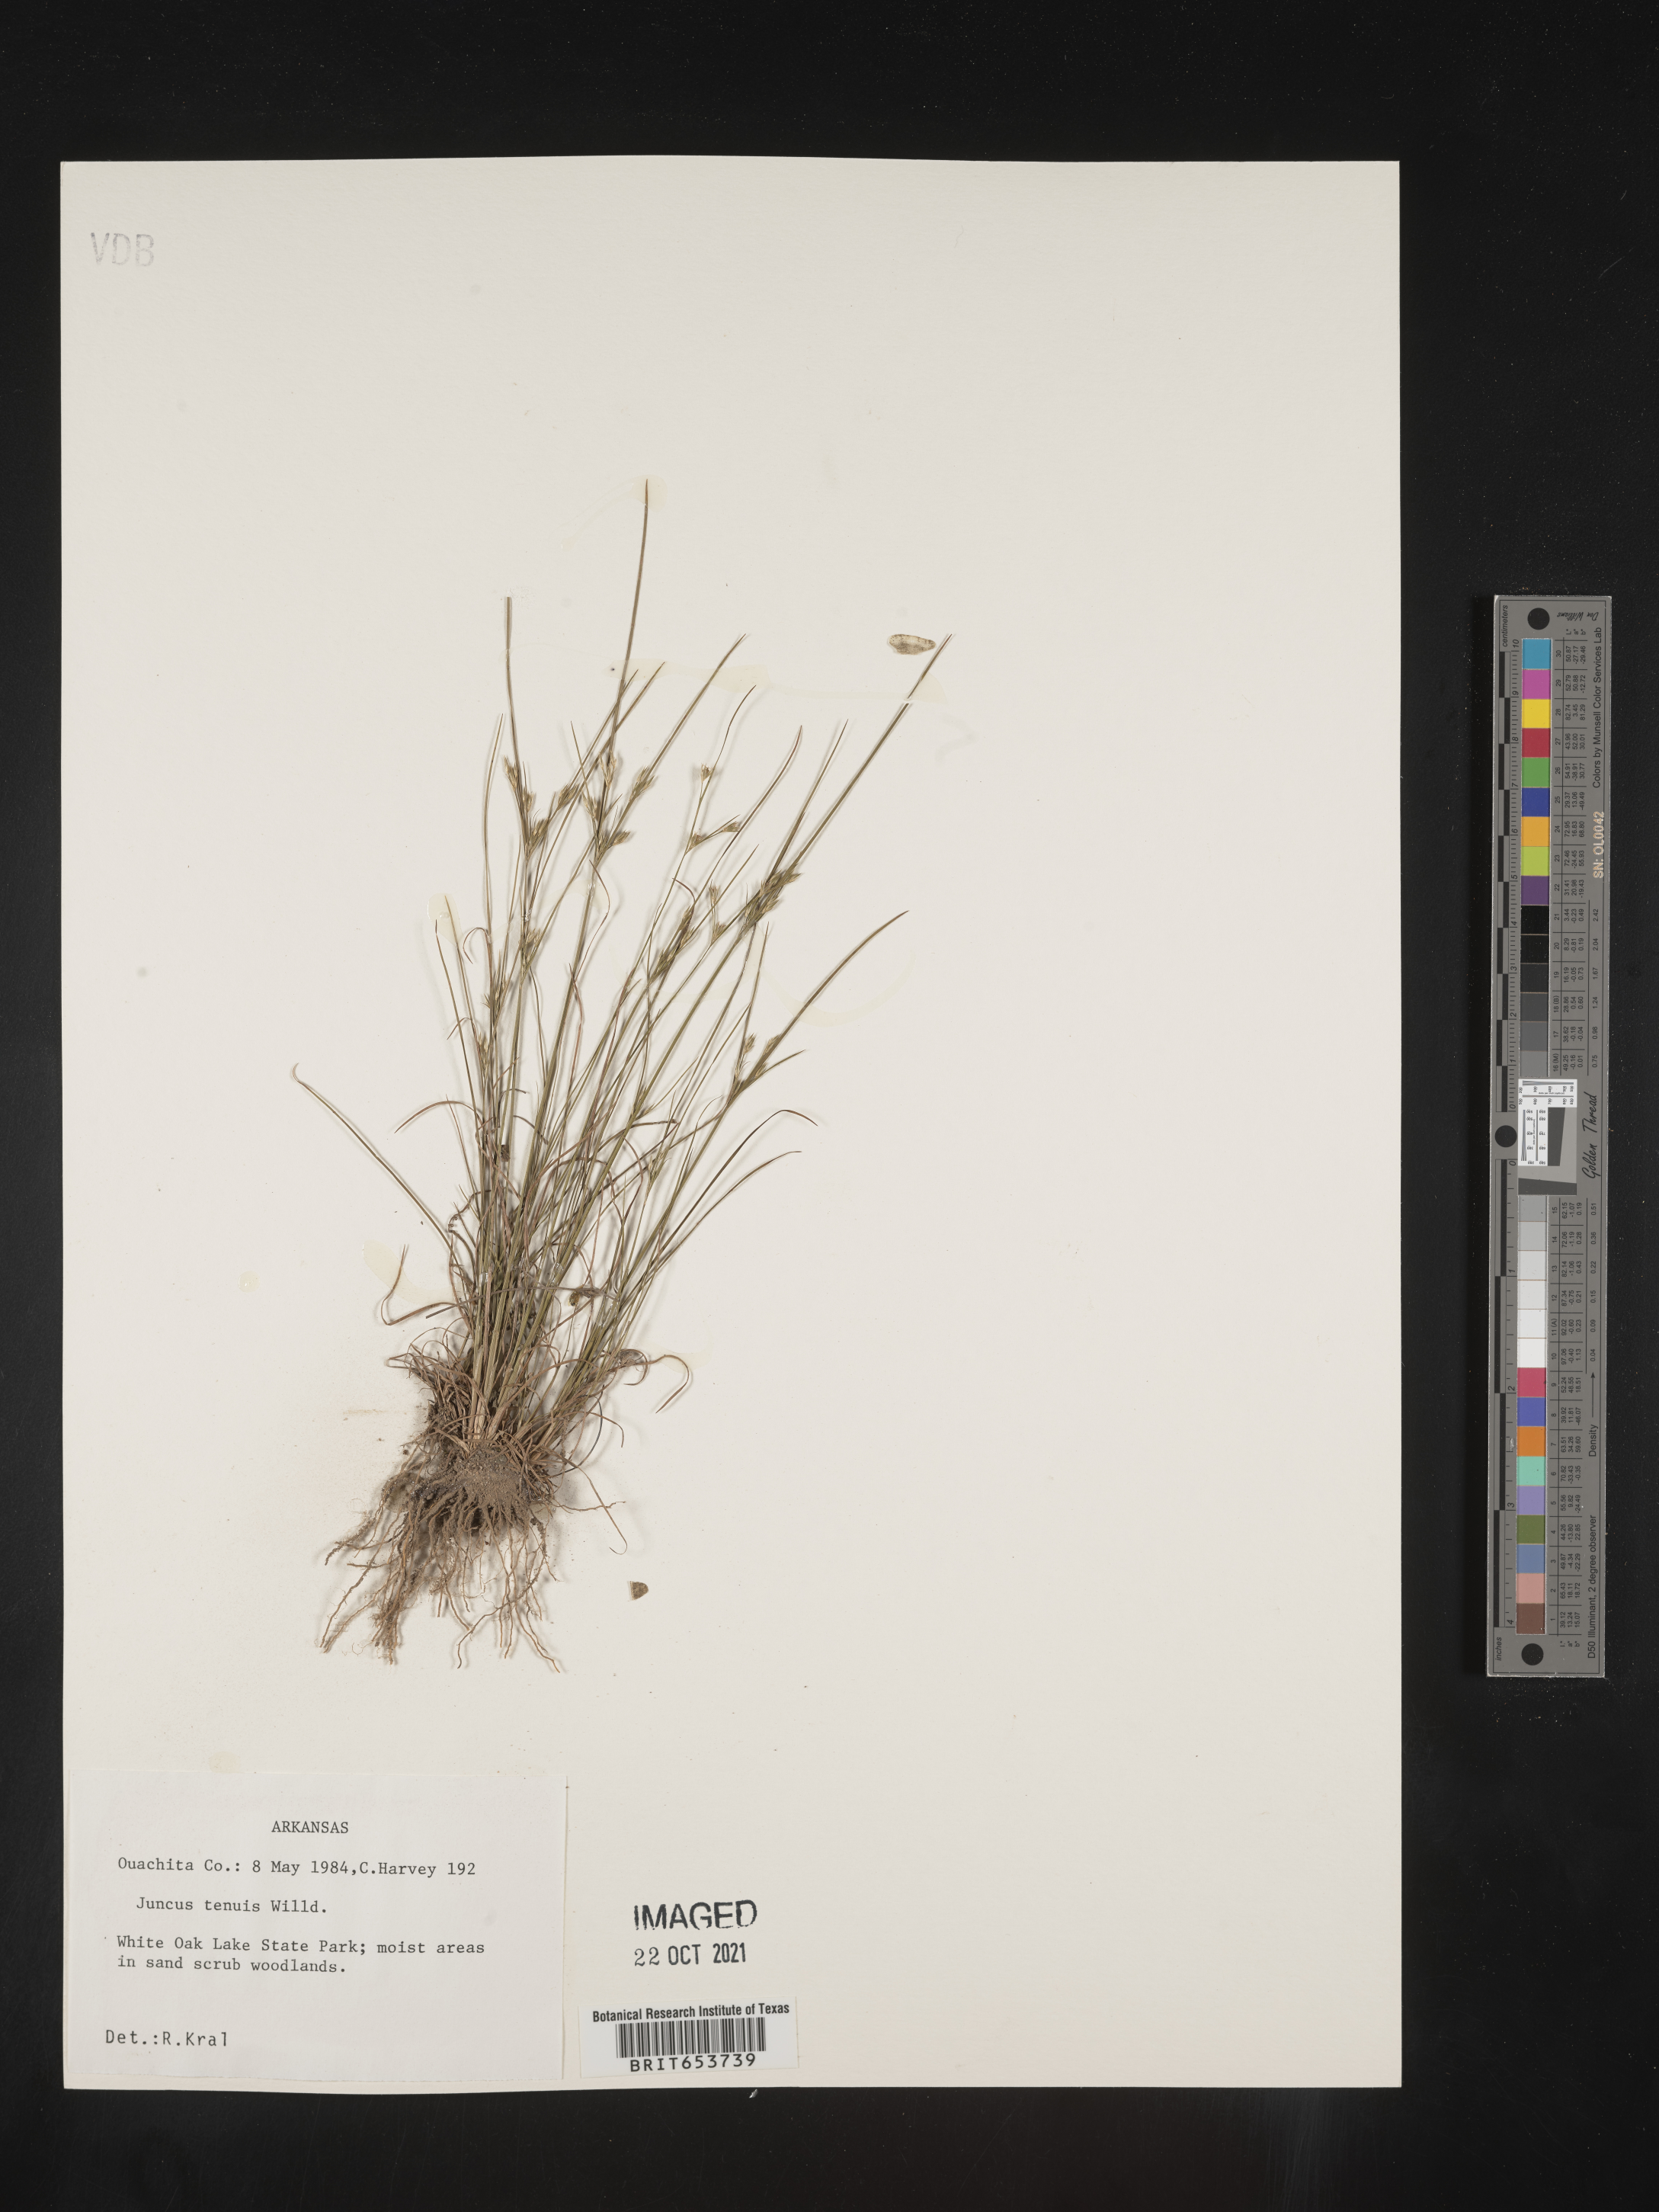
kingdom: Plantae
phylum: Tracheophyta
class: Liliopsida
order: Poales
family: Juncaceae
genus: Juncus
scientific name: Juncus tenuis
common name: Slender rush
